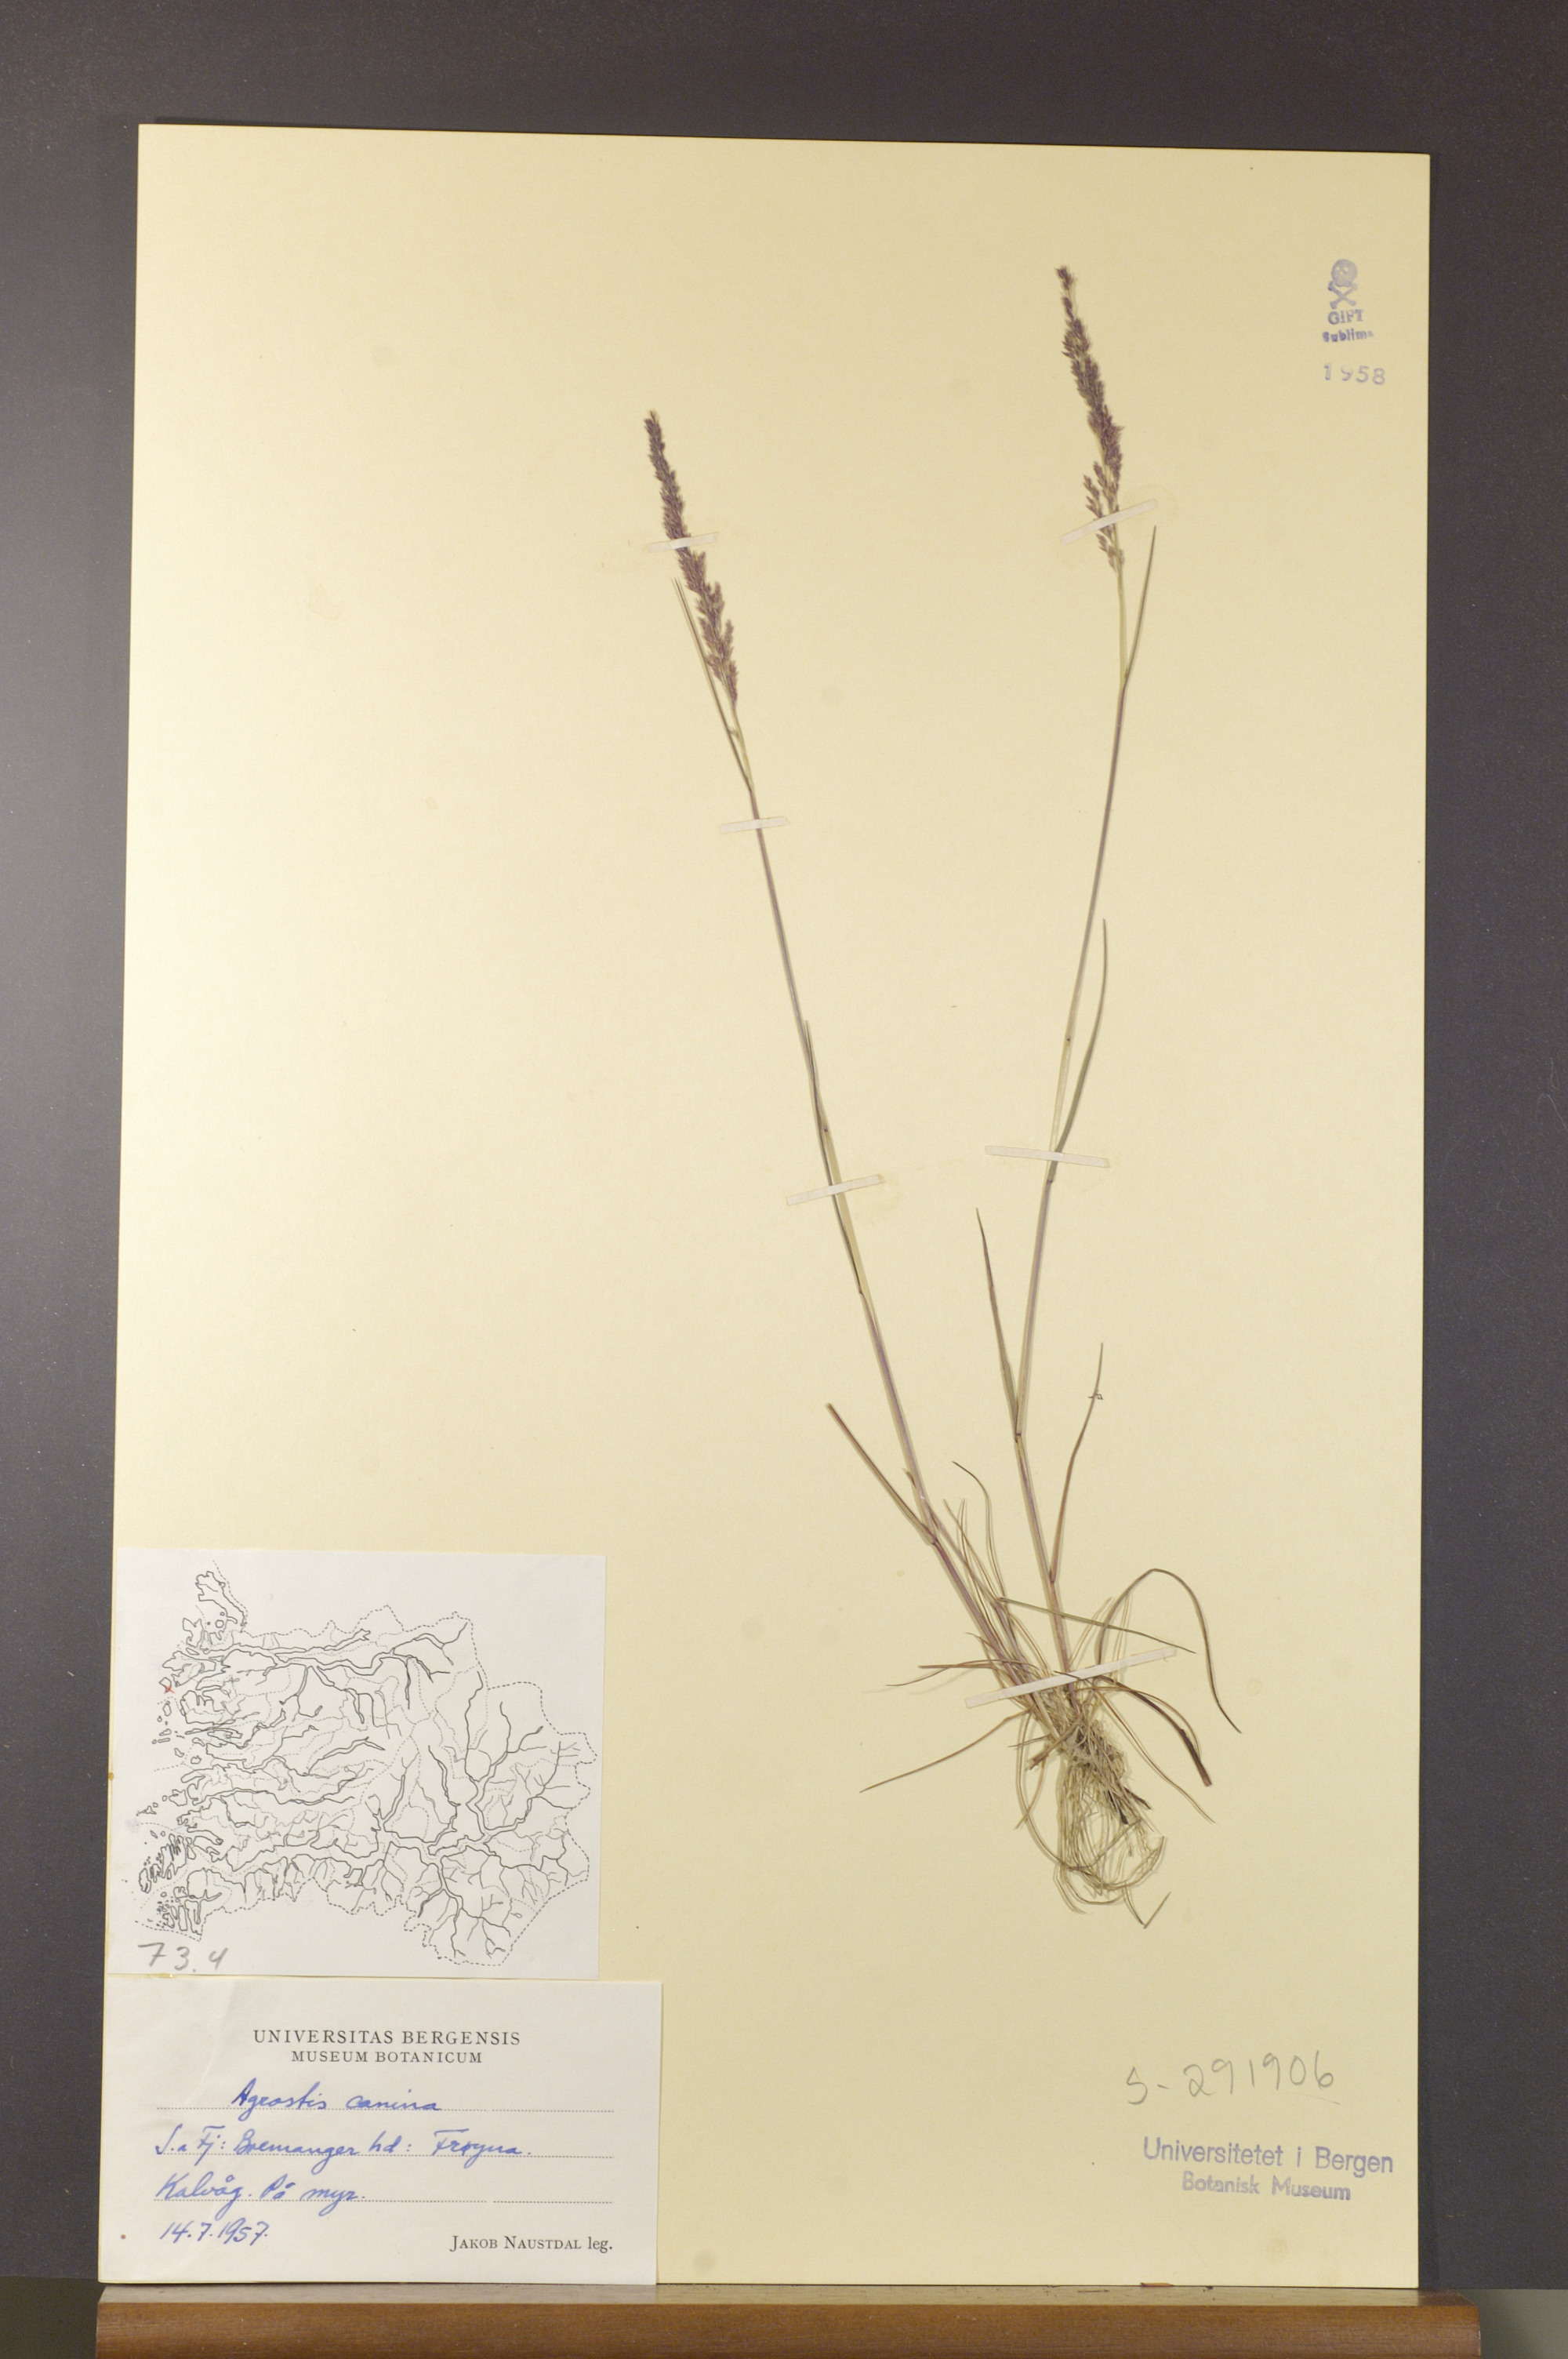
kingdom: Plantae
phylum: Tracheophyta
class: Liliopsida
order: Poales
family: Poaceae
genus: Agrostis
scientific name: Agrostis canina
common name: Velvet bent
